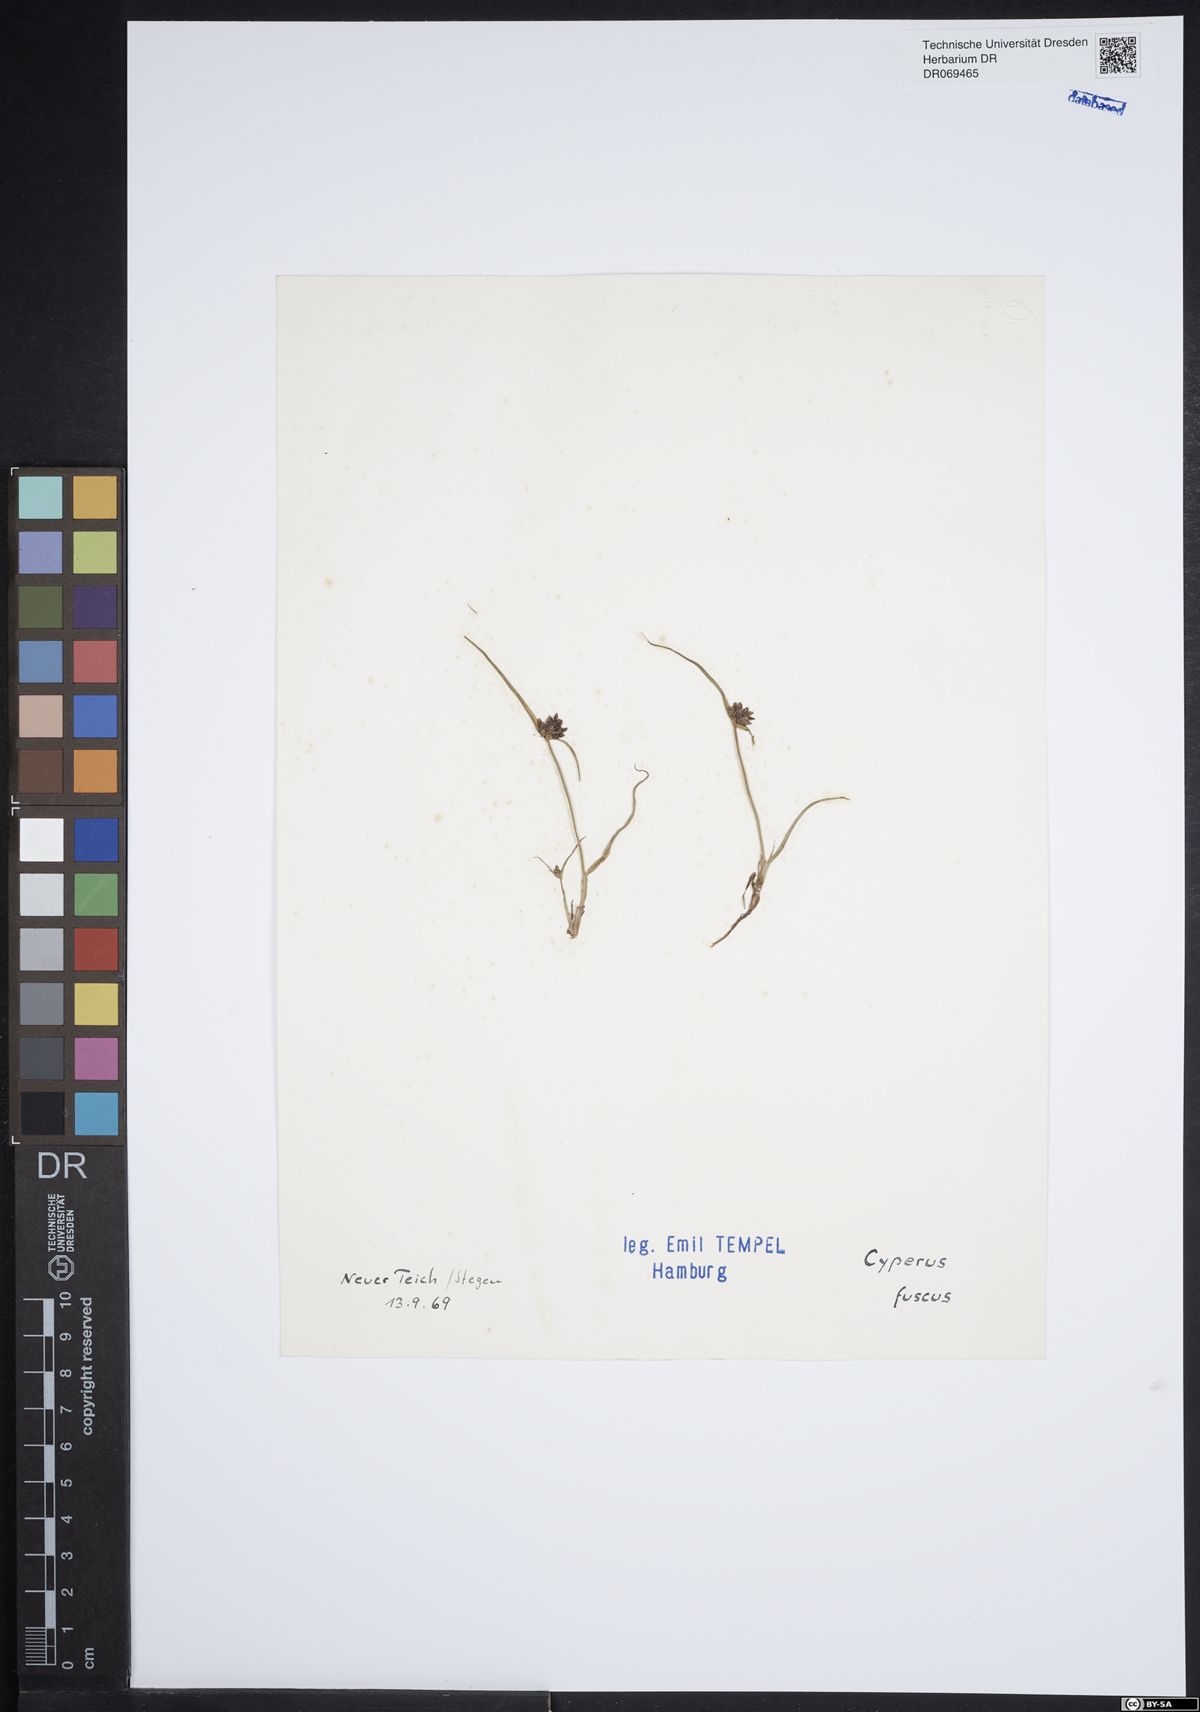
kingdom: Plantae
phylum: Tracheophyta
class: Liliopsida
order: Poales
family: Cyperaceae
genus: Cyperus
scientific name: Cyperus fuscus
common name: Brown galingale
